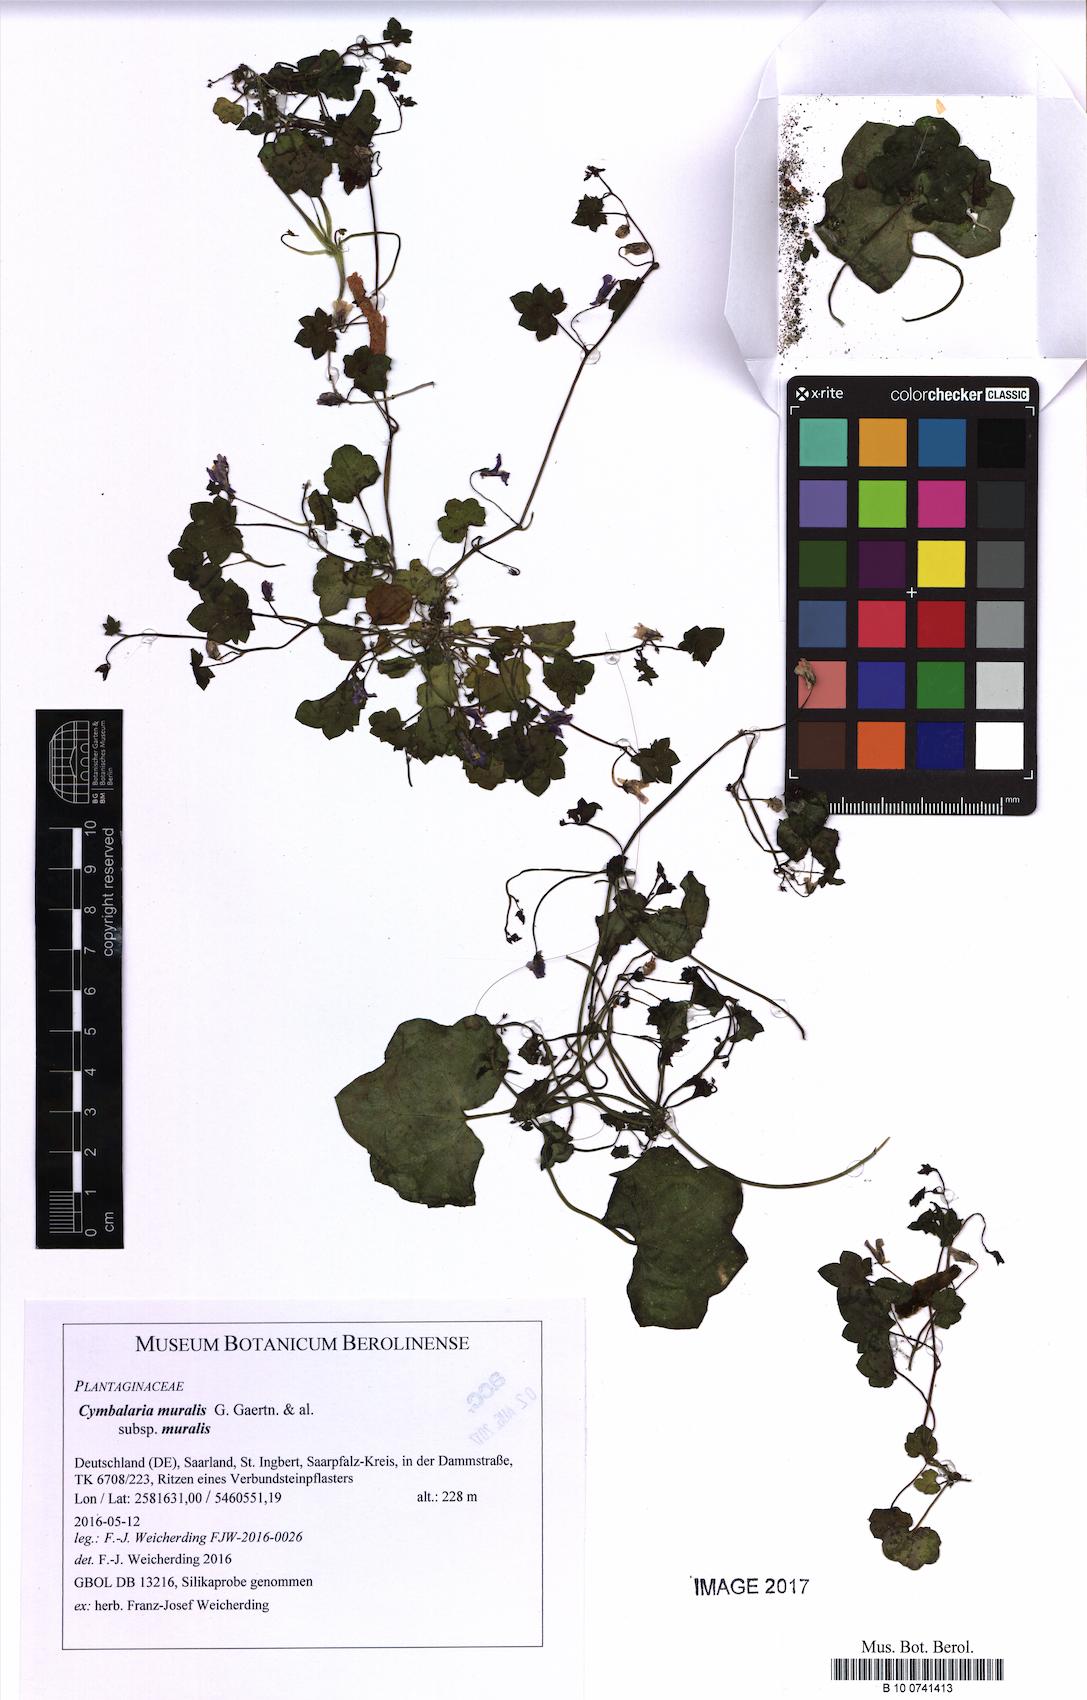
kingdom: Plantae
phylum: Tracheophyta
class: Magnoliopsida
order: Lamiales
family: Plantaginaceae
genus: Cymbalaria
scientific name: Cymbalaria muralis
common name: Ivy-leaved toadflax
